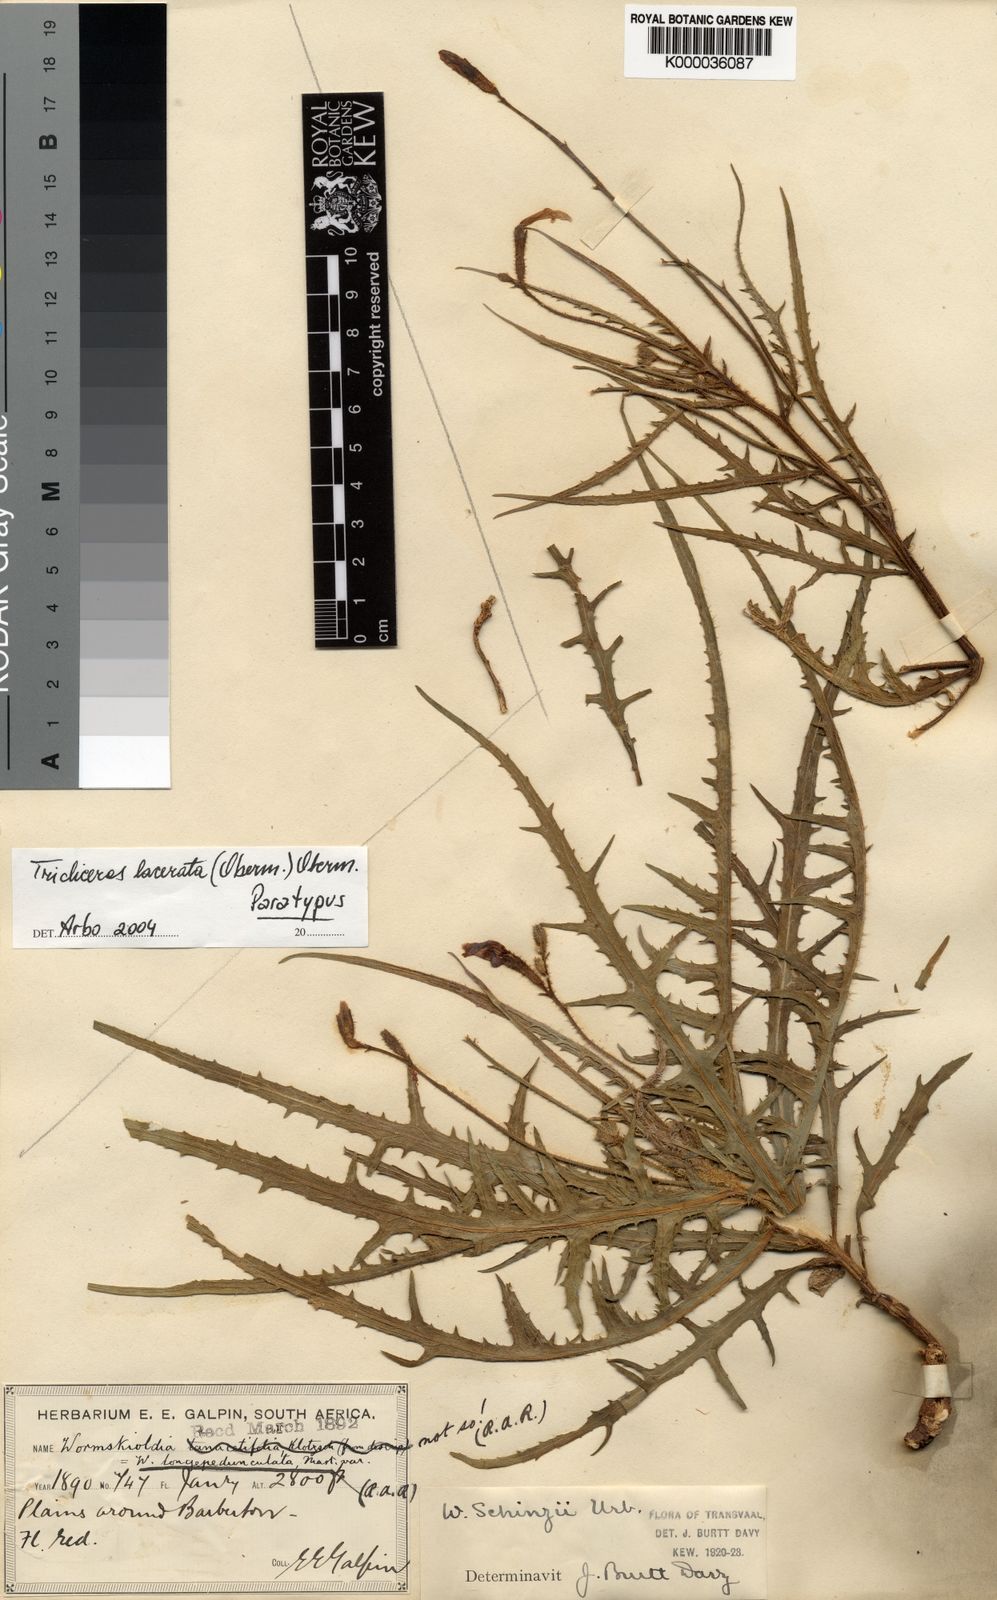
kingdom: Plantae
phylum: Tracheophyta
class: Magnoliopsida
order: Malpighiales
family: Turneraceae
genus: Streptopetalum
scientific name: Streptopetalum
